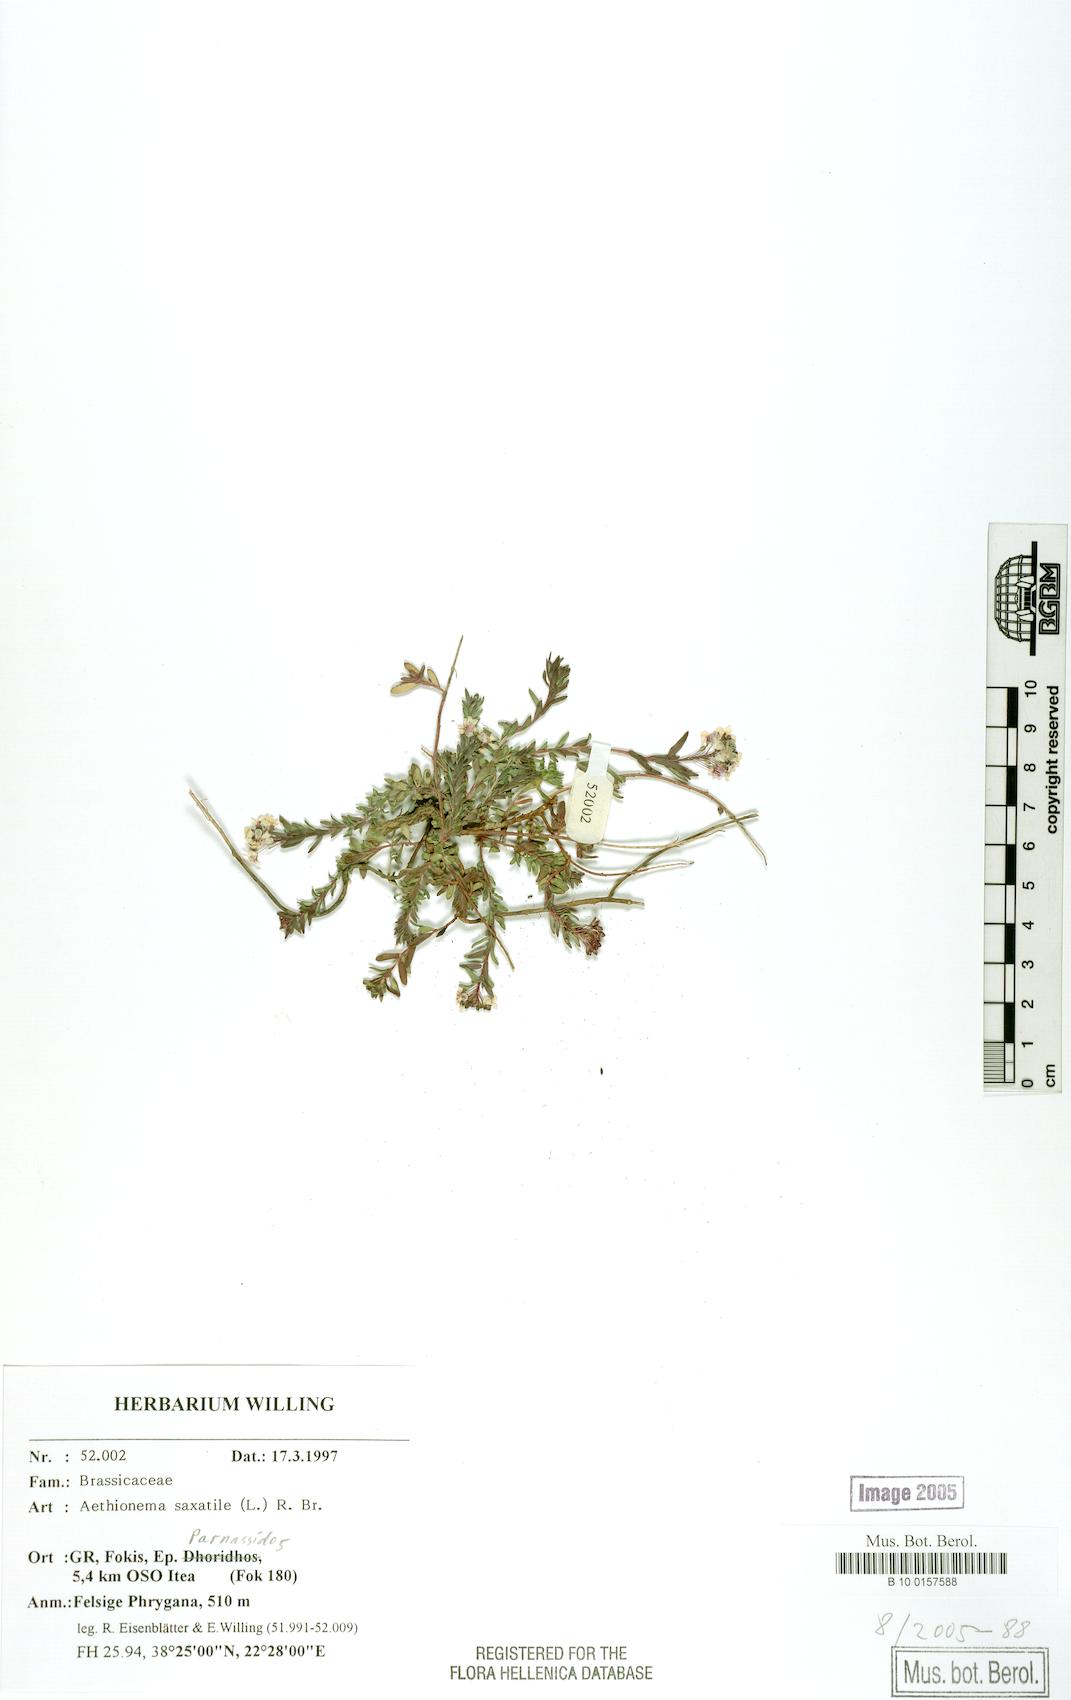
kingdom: Plantae
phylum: Tracheophyta
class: Magnoliopsida
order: Brassicales
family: Brassicaceae
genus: Aethionema
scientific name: Aethionema saxatile
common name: Burnt candytuft
